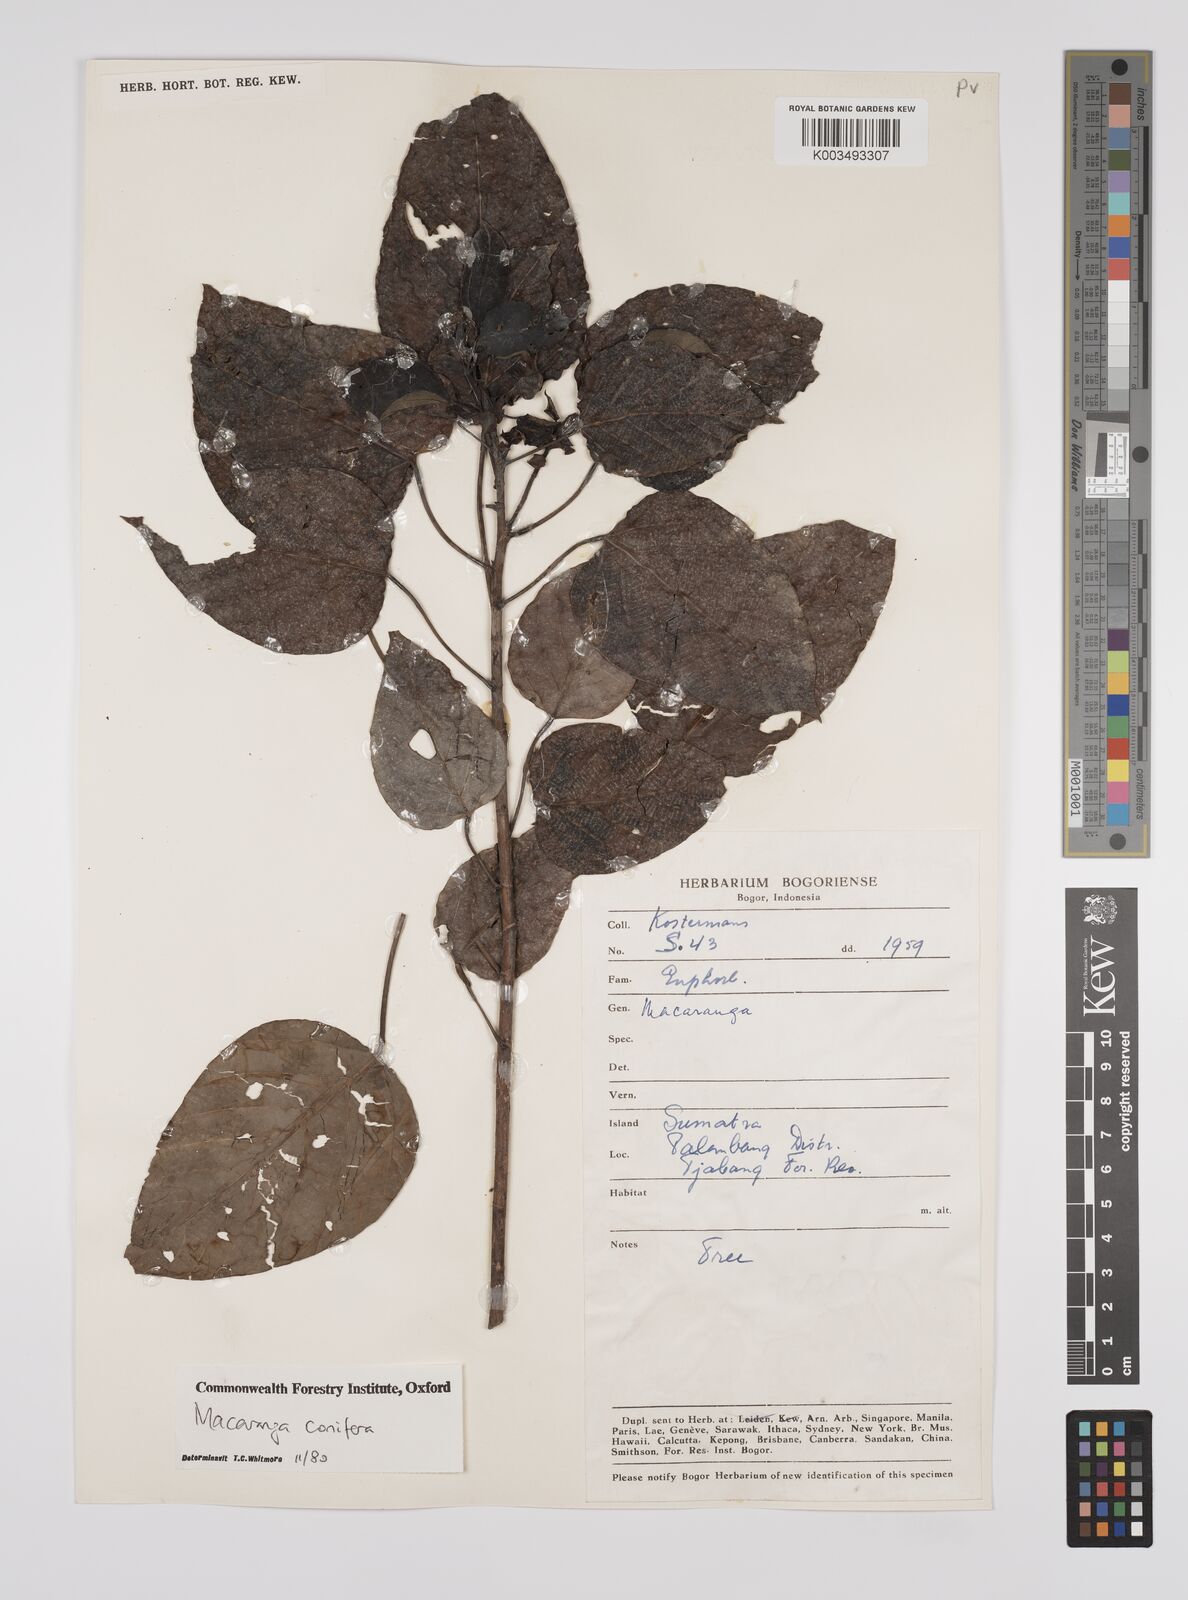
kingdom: Plantae
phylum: Tracheophyta
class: Magnoliopsida
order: Malpighiales
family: Euphorbiaceae
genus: Macaranga
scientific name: Macaranga conifera
